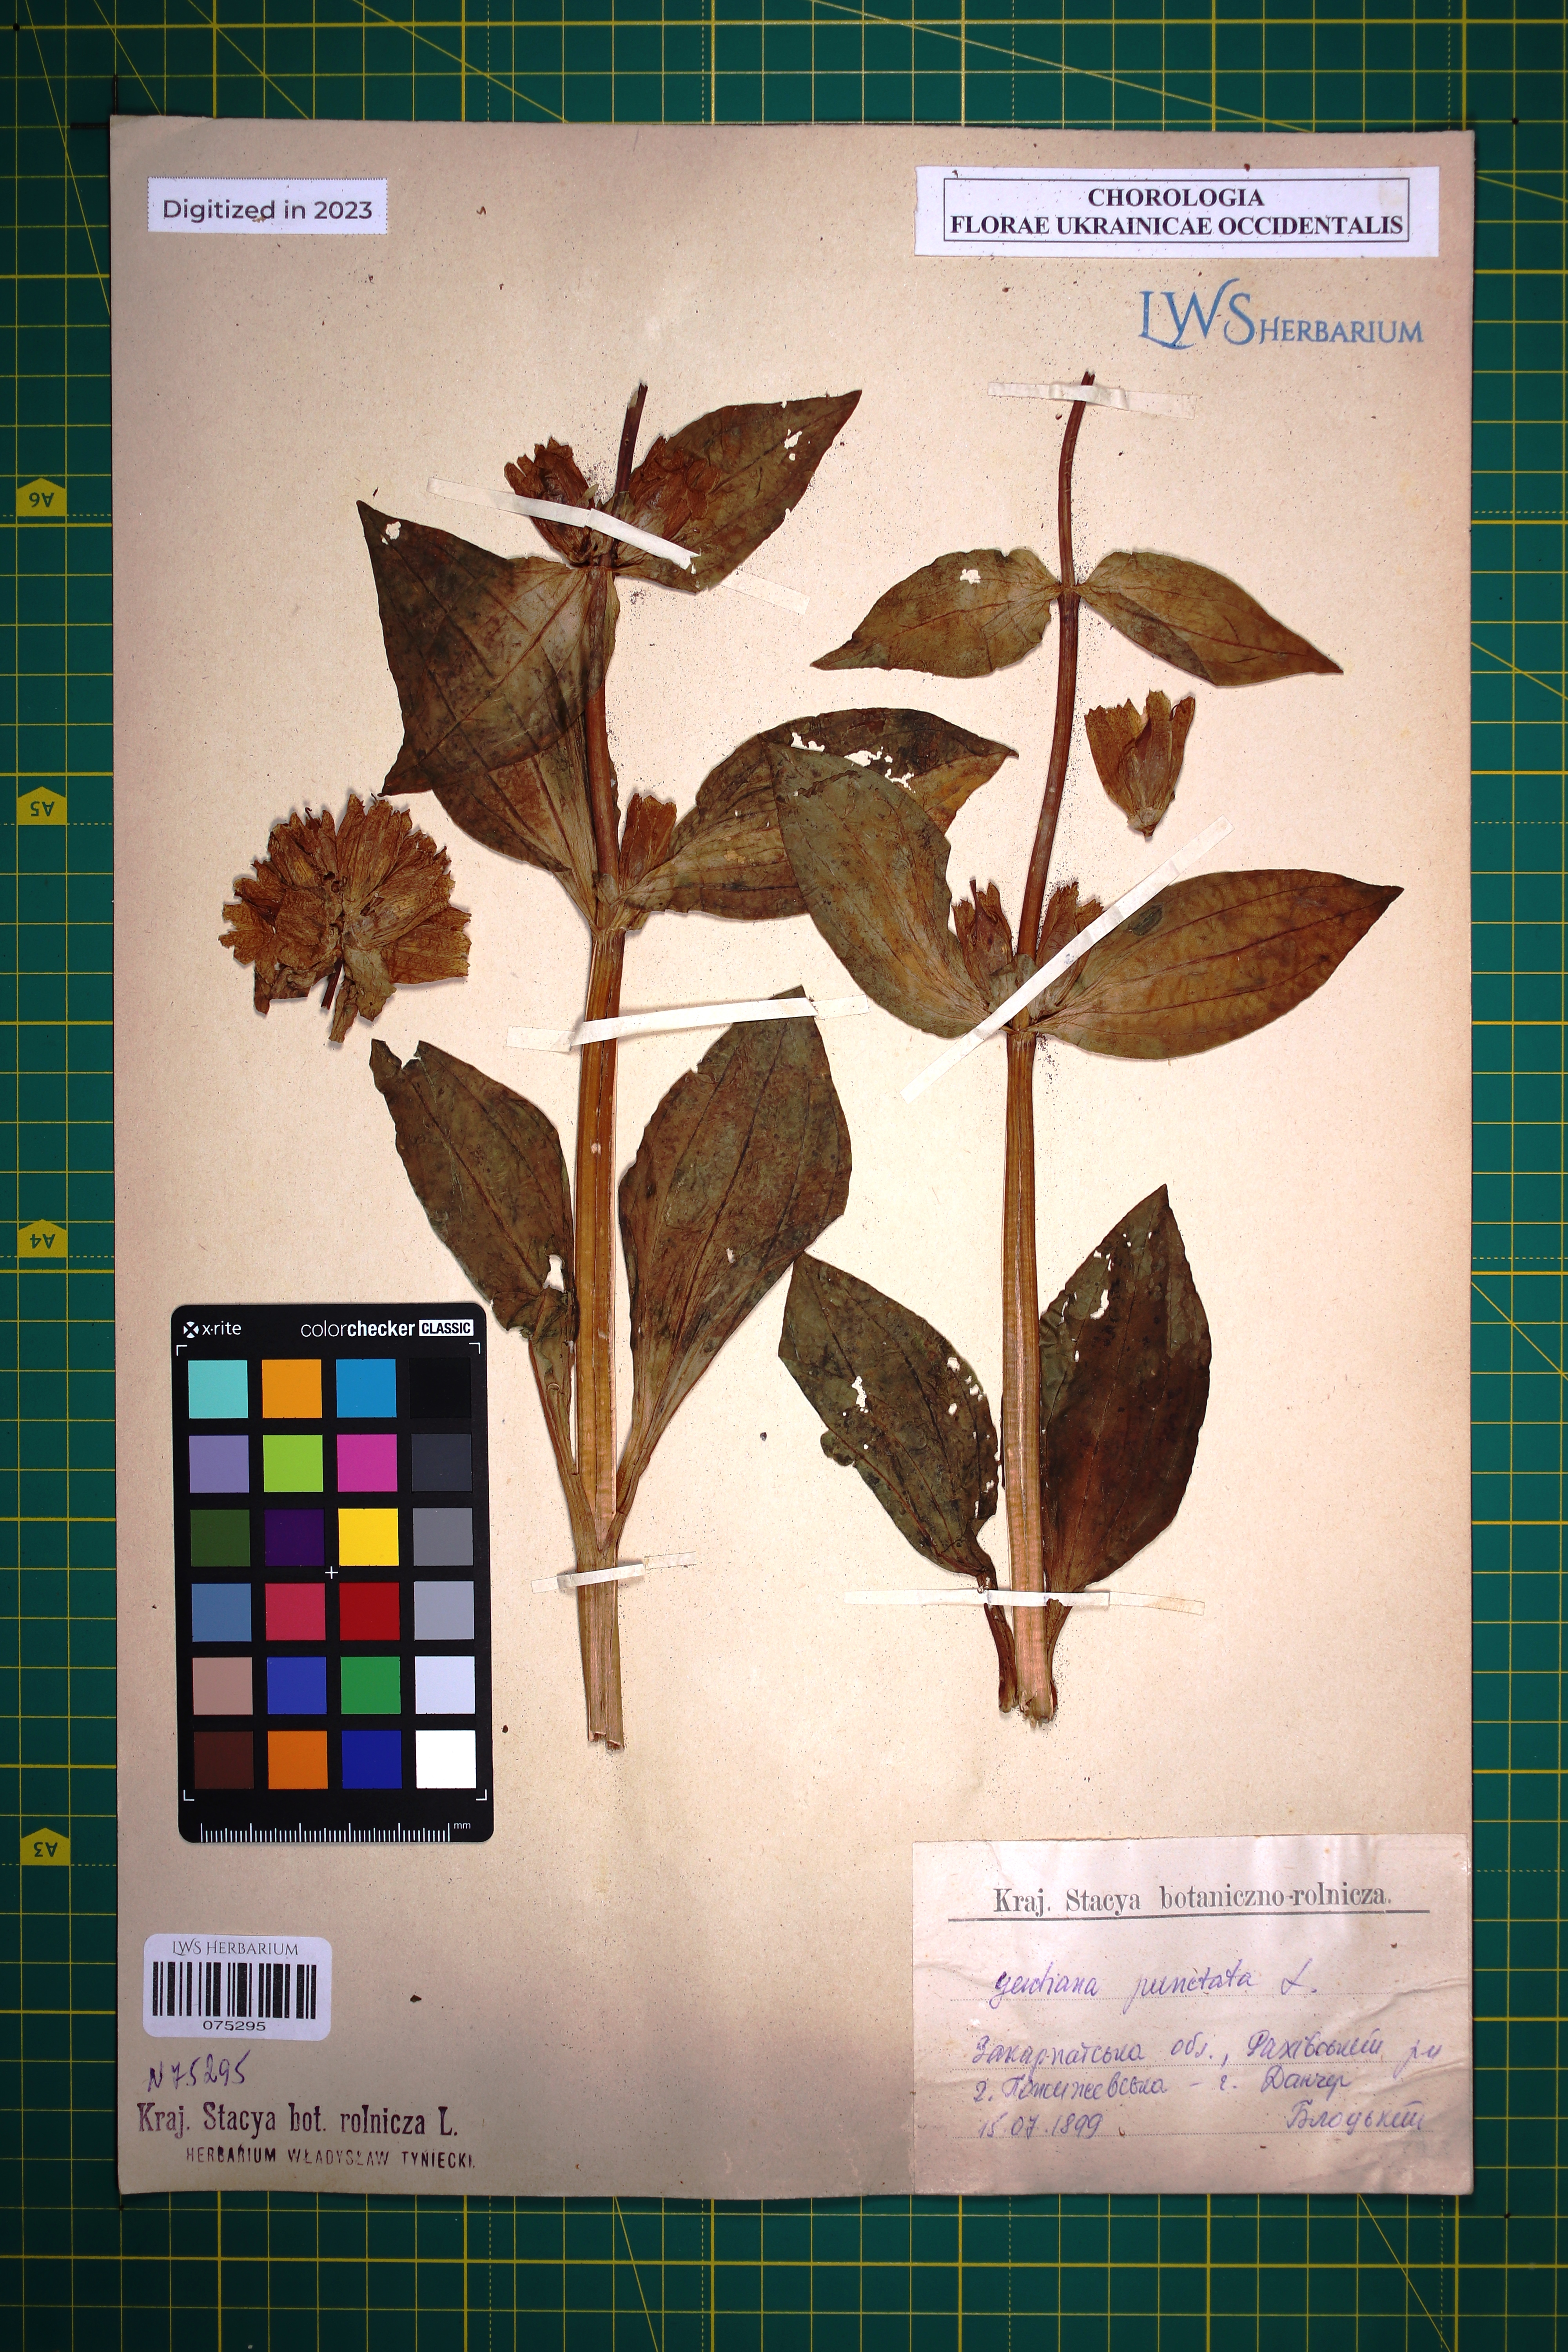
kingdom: Plantae
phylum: Tracheophyta
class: Magnoliopsida
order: Gentianales
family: Gentianaceae
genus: Gentiana
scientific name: Gentiana punctata
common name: Spotted gentian
